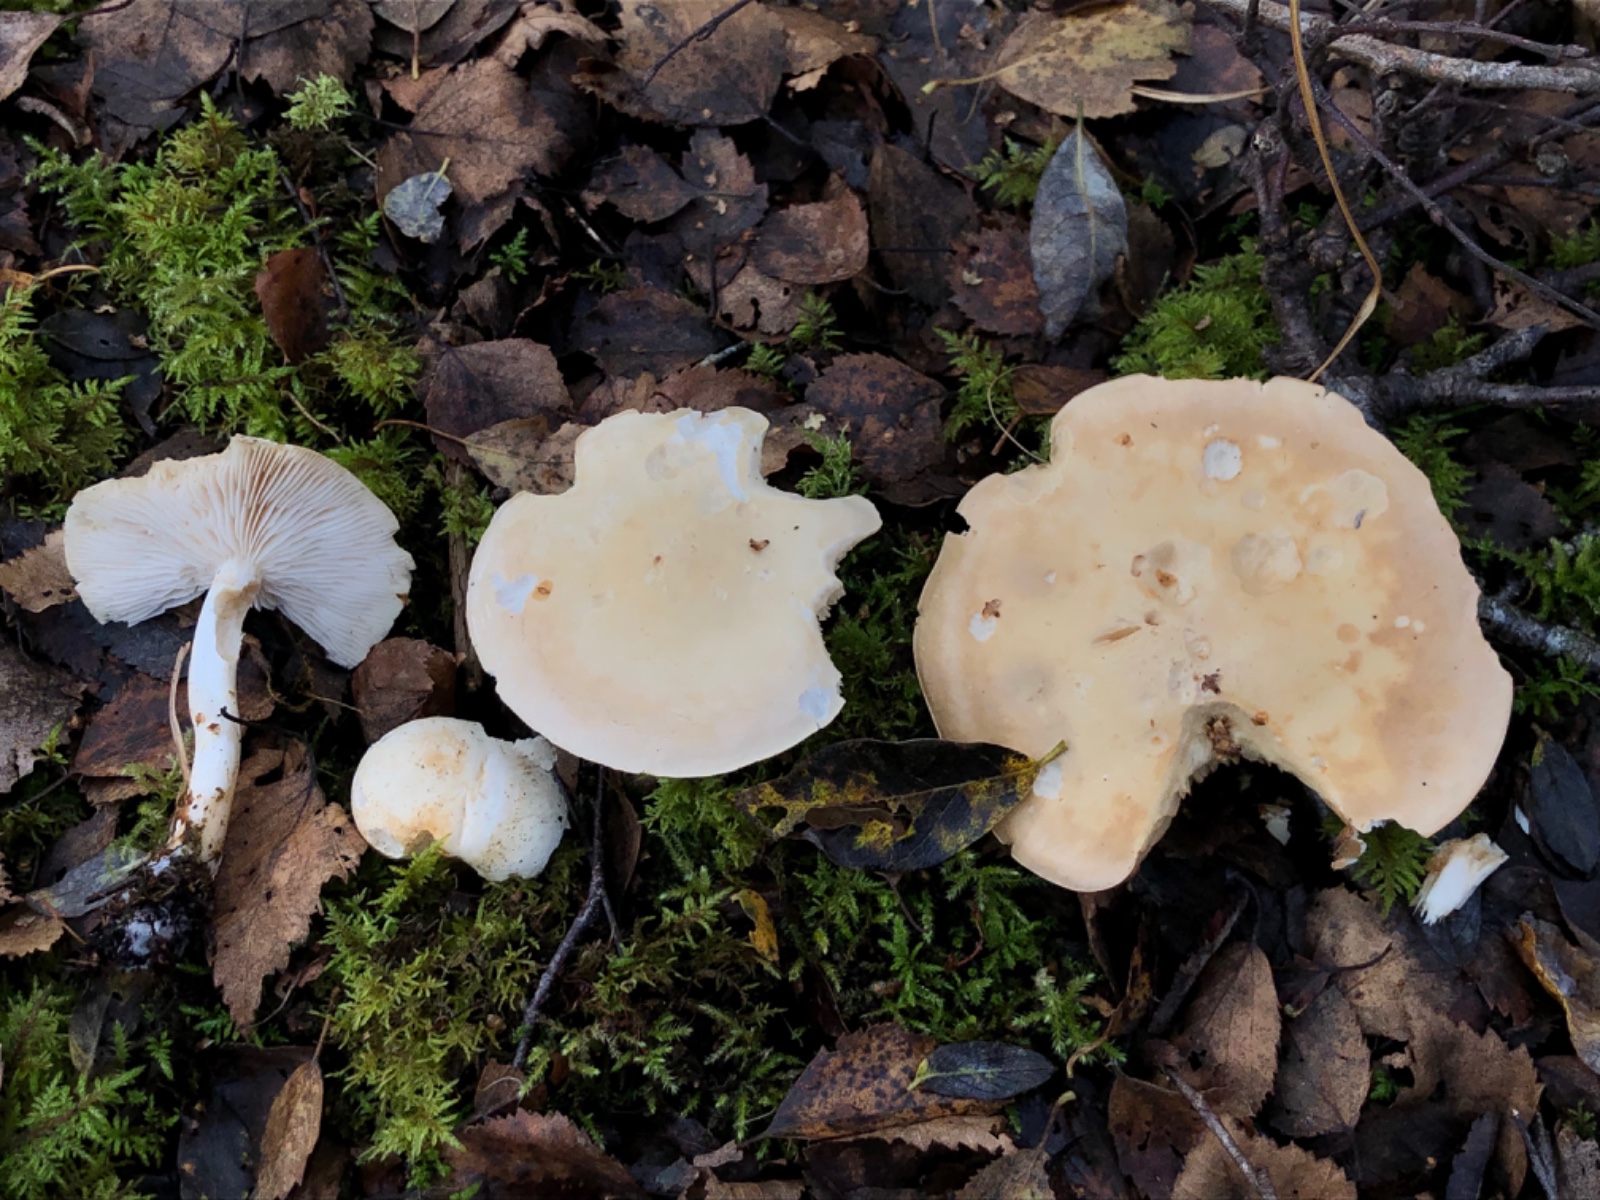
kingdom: Fungi
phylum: Basidiomycota
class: Agaricomycetes
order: Agaricales
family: Tricholomataceae
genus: Tricholoma
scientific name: Tricholoma stiparophyllum
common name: hvid ridderhat
